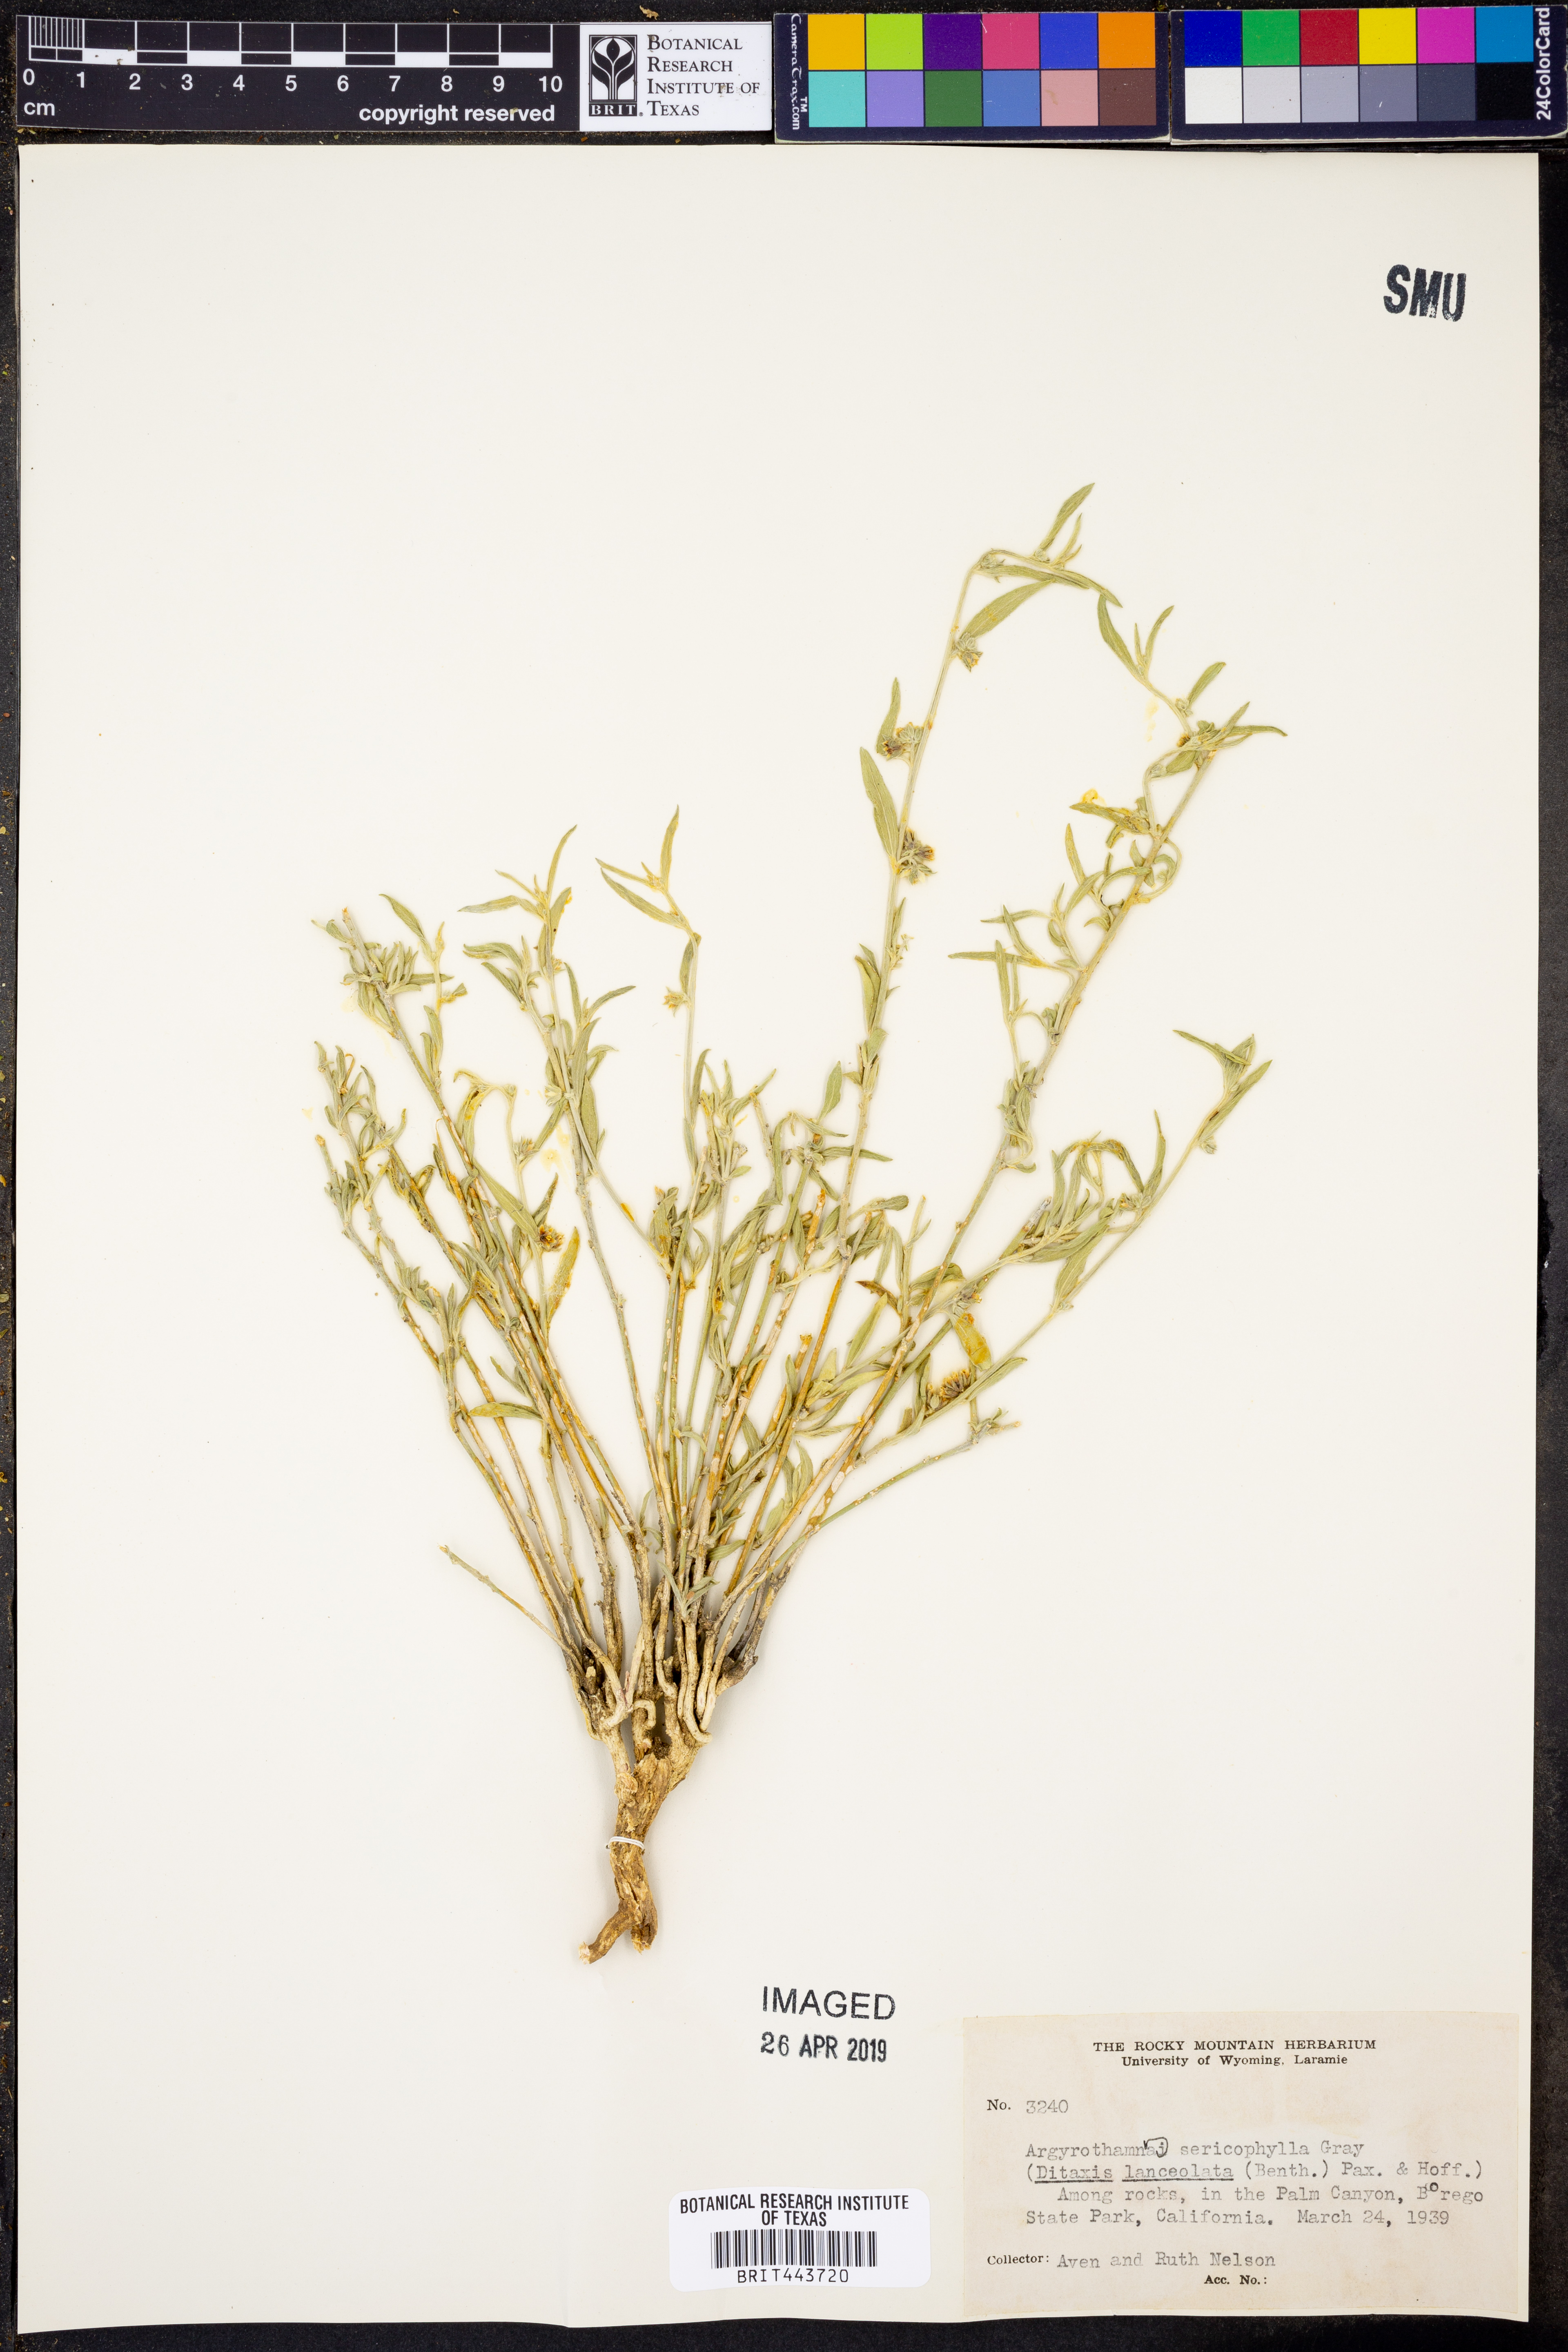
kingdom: Plantae
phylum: Tracheophyta
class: Magnoliopsida
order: Malpighiales
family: Euphorbiaceae
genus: Ditaxis
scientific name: Ditaxis lanceolata
